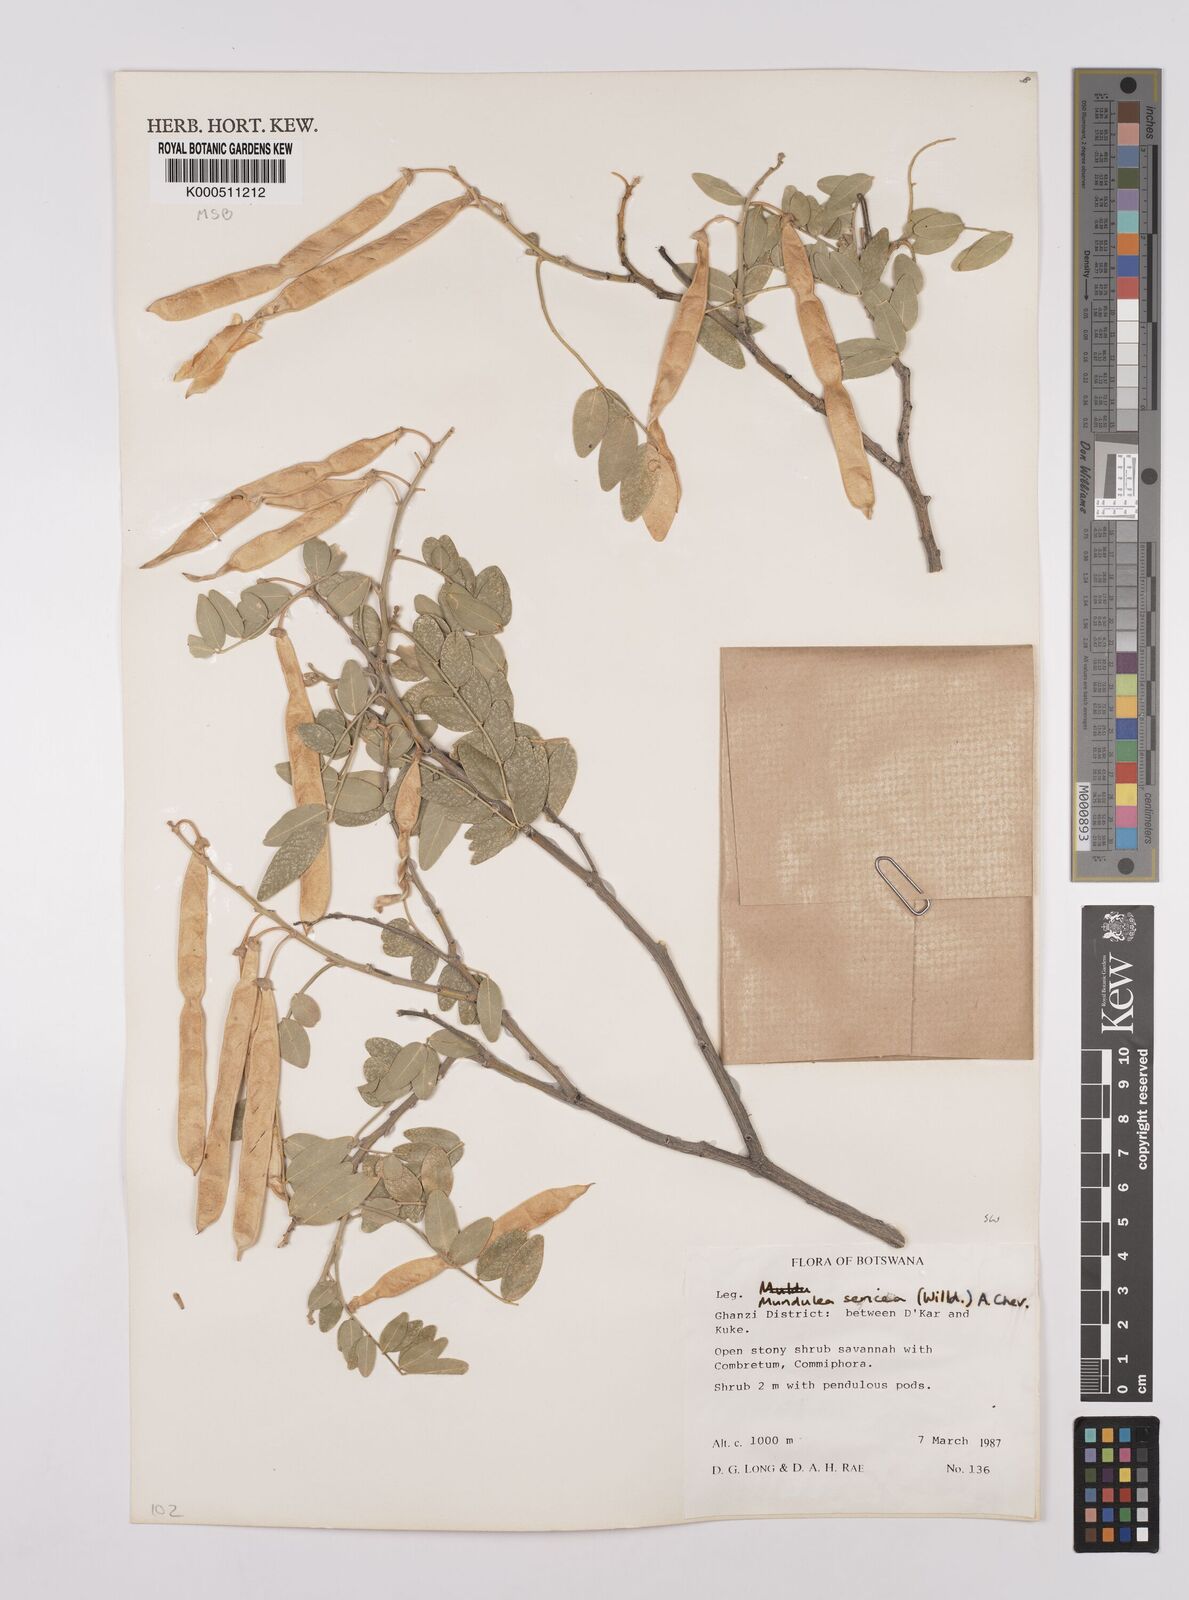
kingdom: Plantae
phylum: Tracheophyta
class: Magnoliopsida
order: Fabales
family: Fabaceae
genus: Mundulea
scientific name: Mundulea sericea
